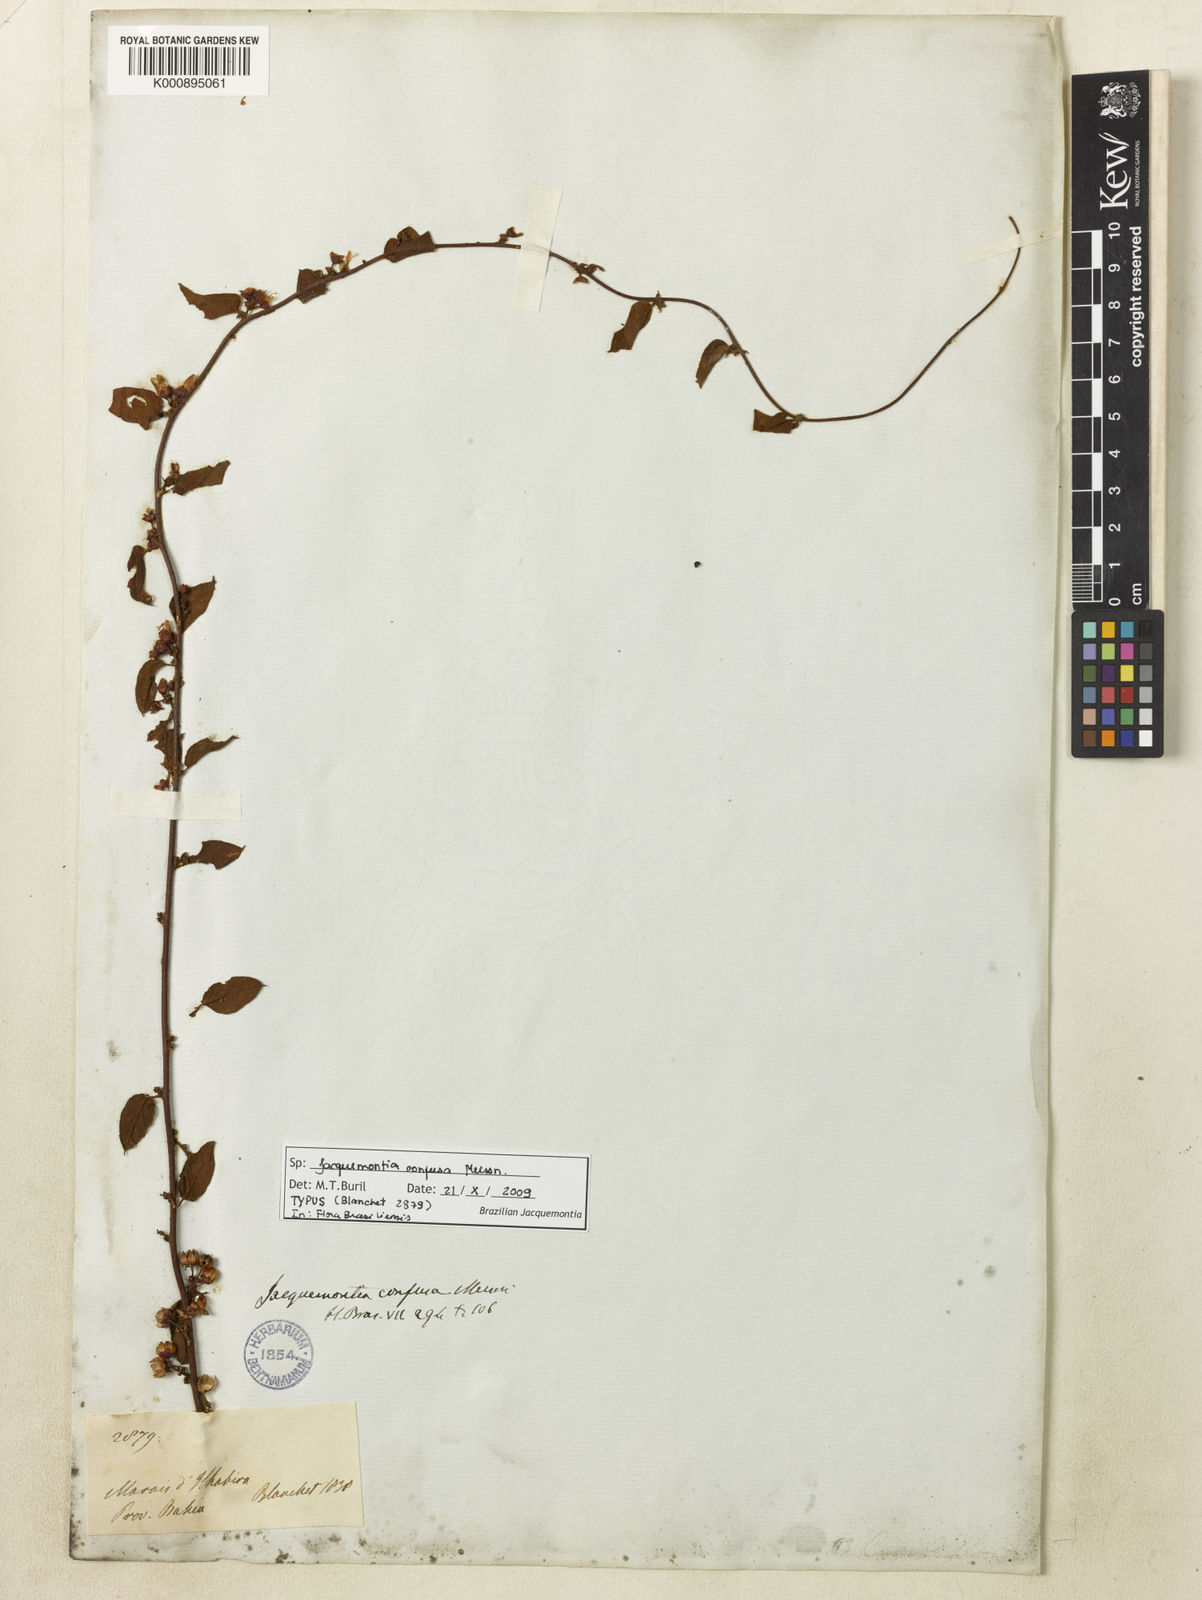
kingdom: Plantae
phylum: Tracheophyta
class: Magnoliopsida
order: Solanales
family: Convolvulaceae
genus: Jacquemontia
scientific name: Jacquemontia nodiflora
